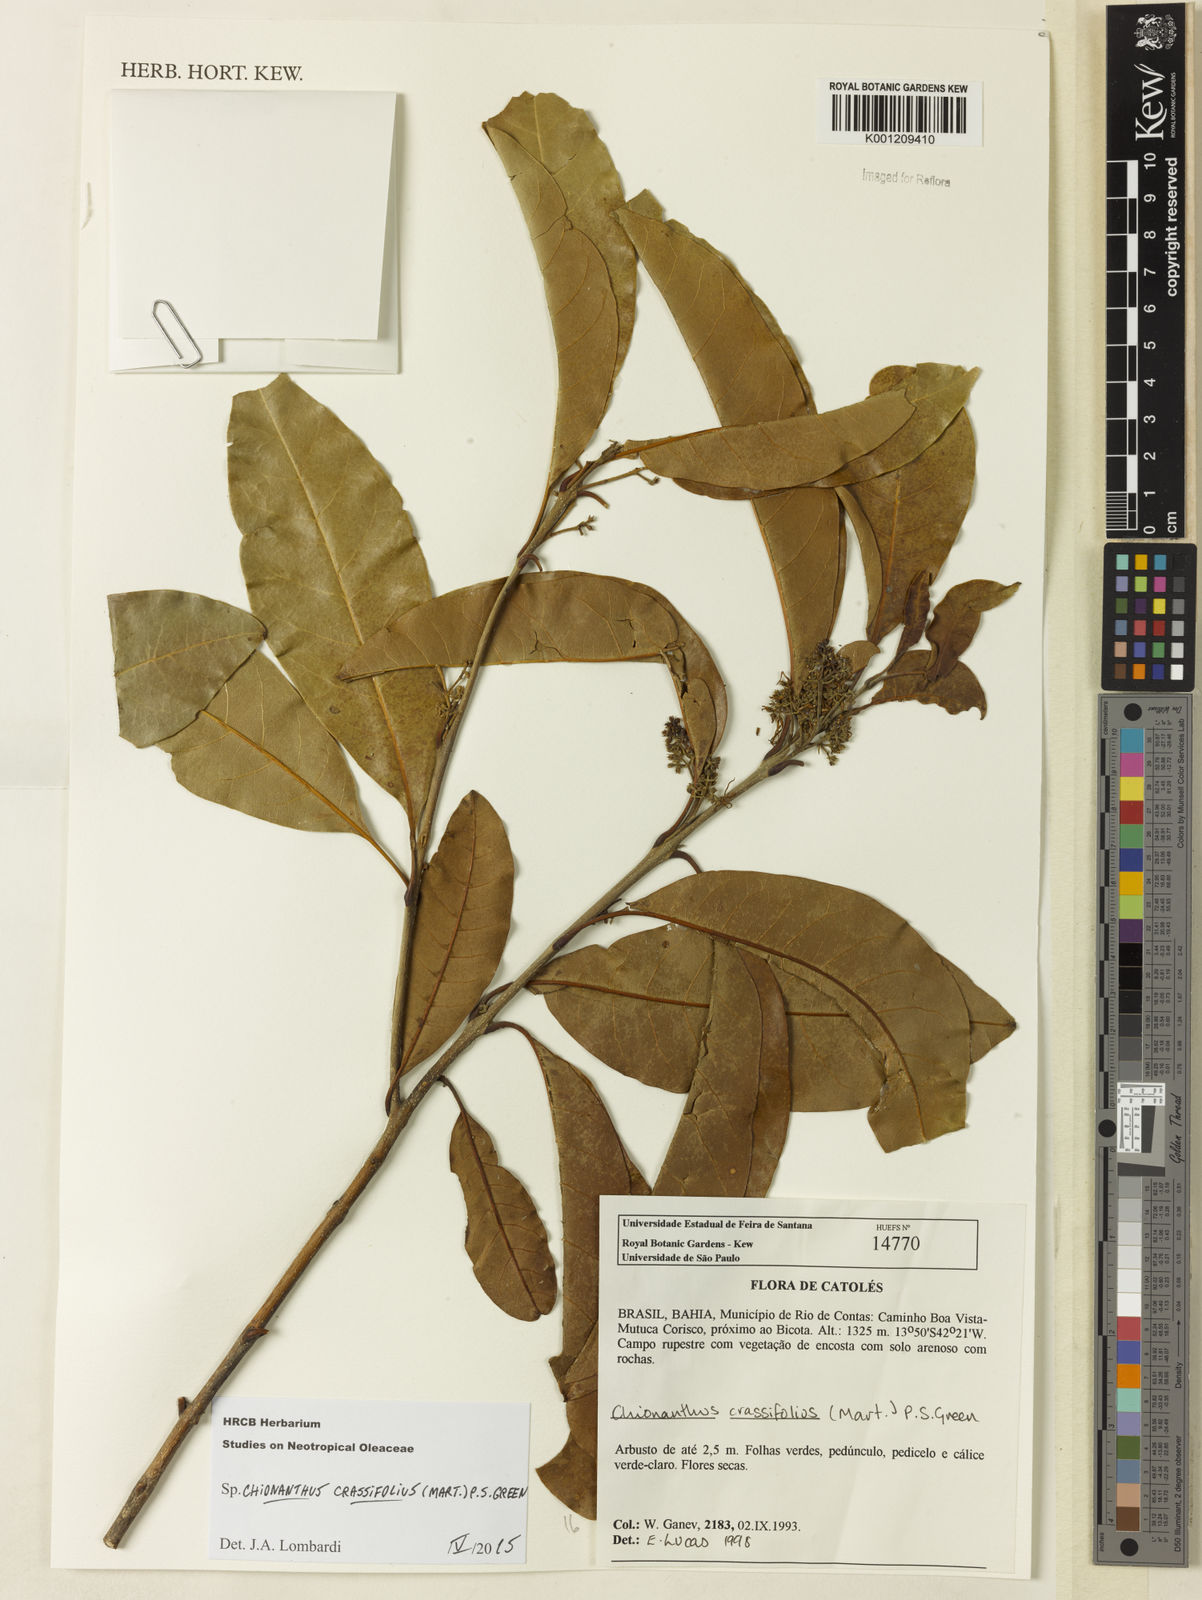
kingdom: Plantae
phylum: Tracheophyta
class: Magnoliopsida
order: Lamiales
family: Oleaceae
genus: Chionanthus
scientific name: Chionanthus crassifolius
